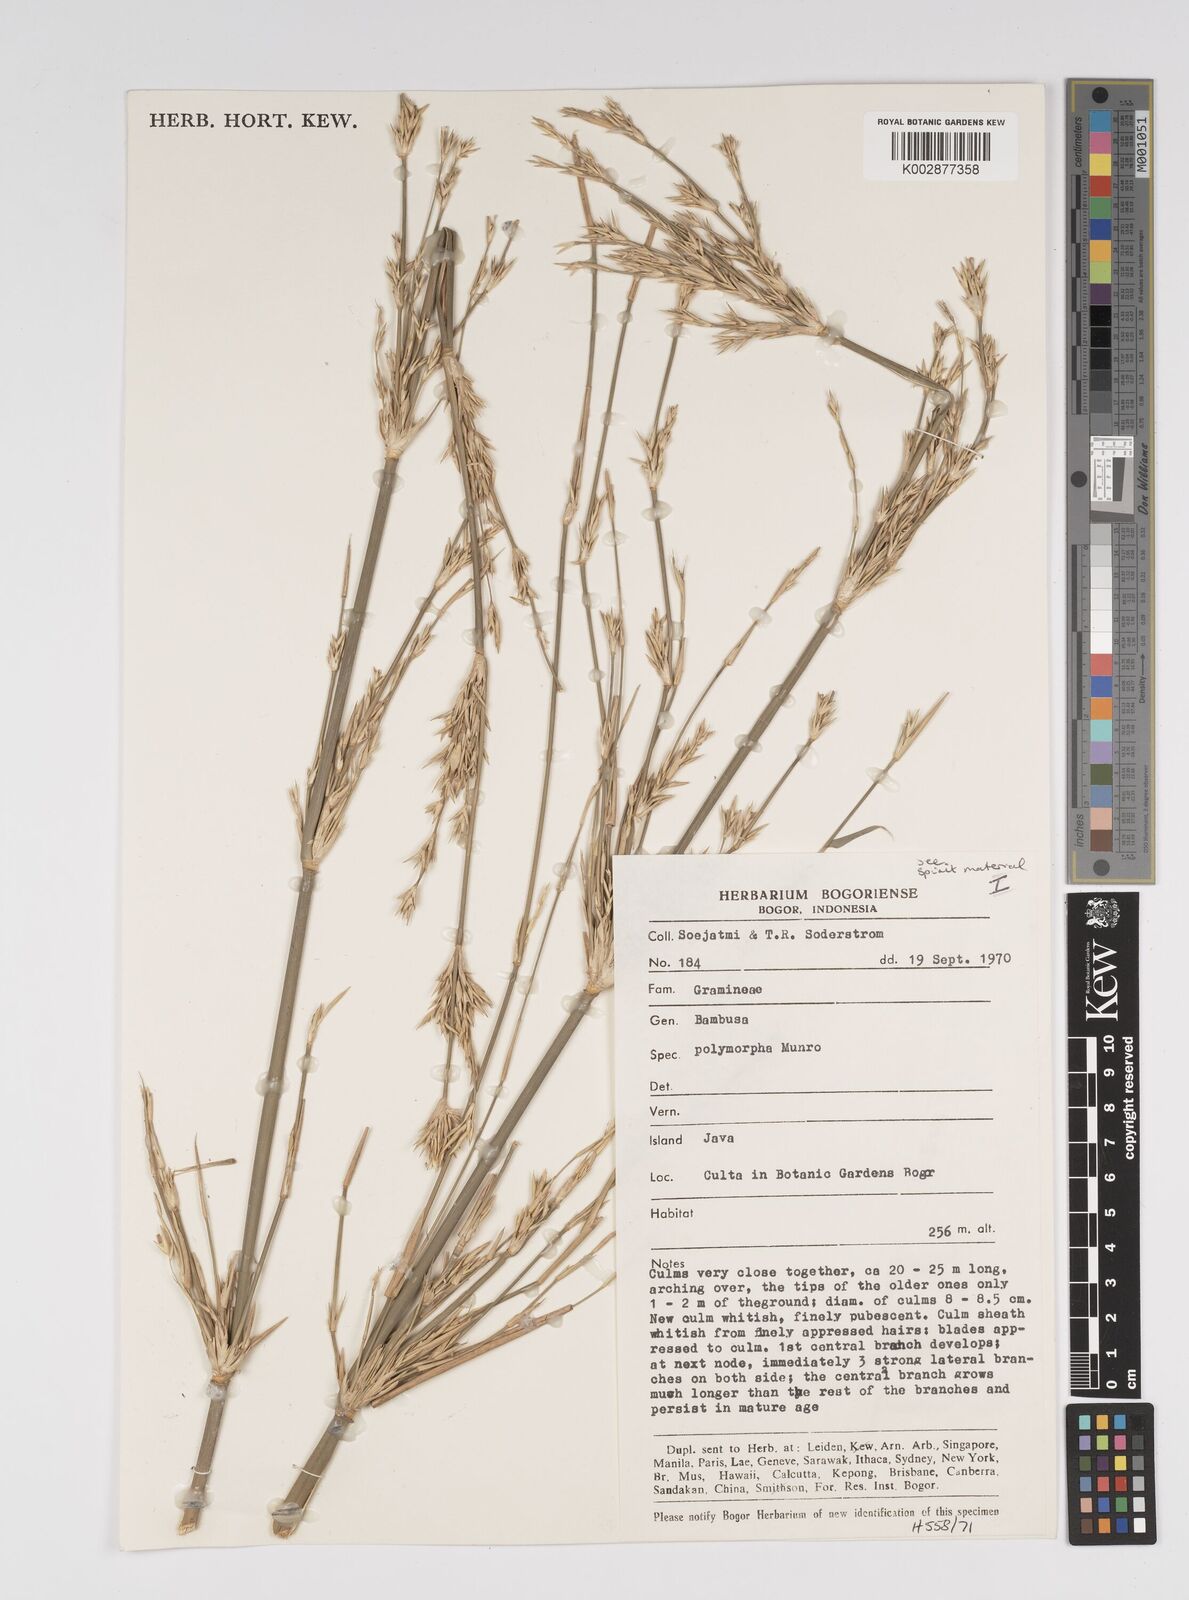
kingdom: Plantae
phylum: Tracheophyta
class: Liliopsida
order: Poales
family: Poaceae
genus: Bambusa
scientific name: Bambusa polymorpha
